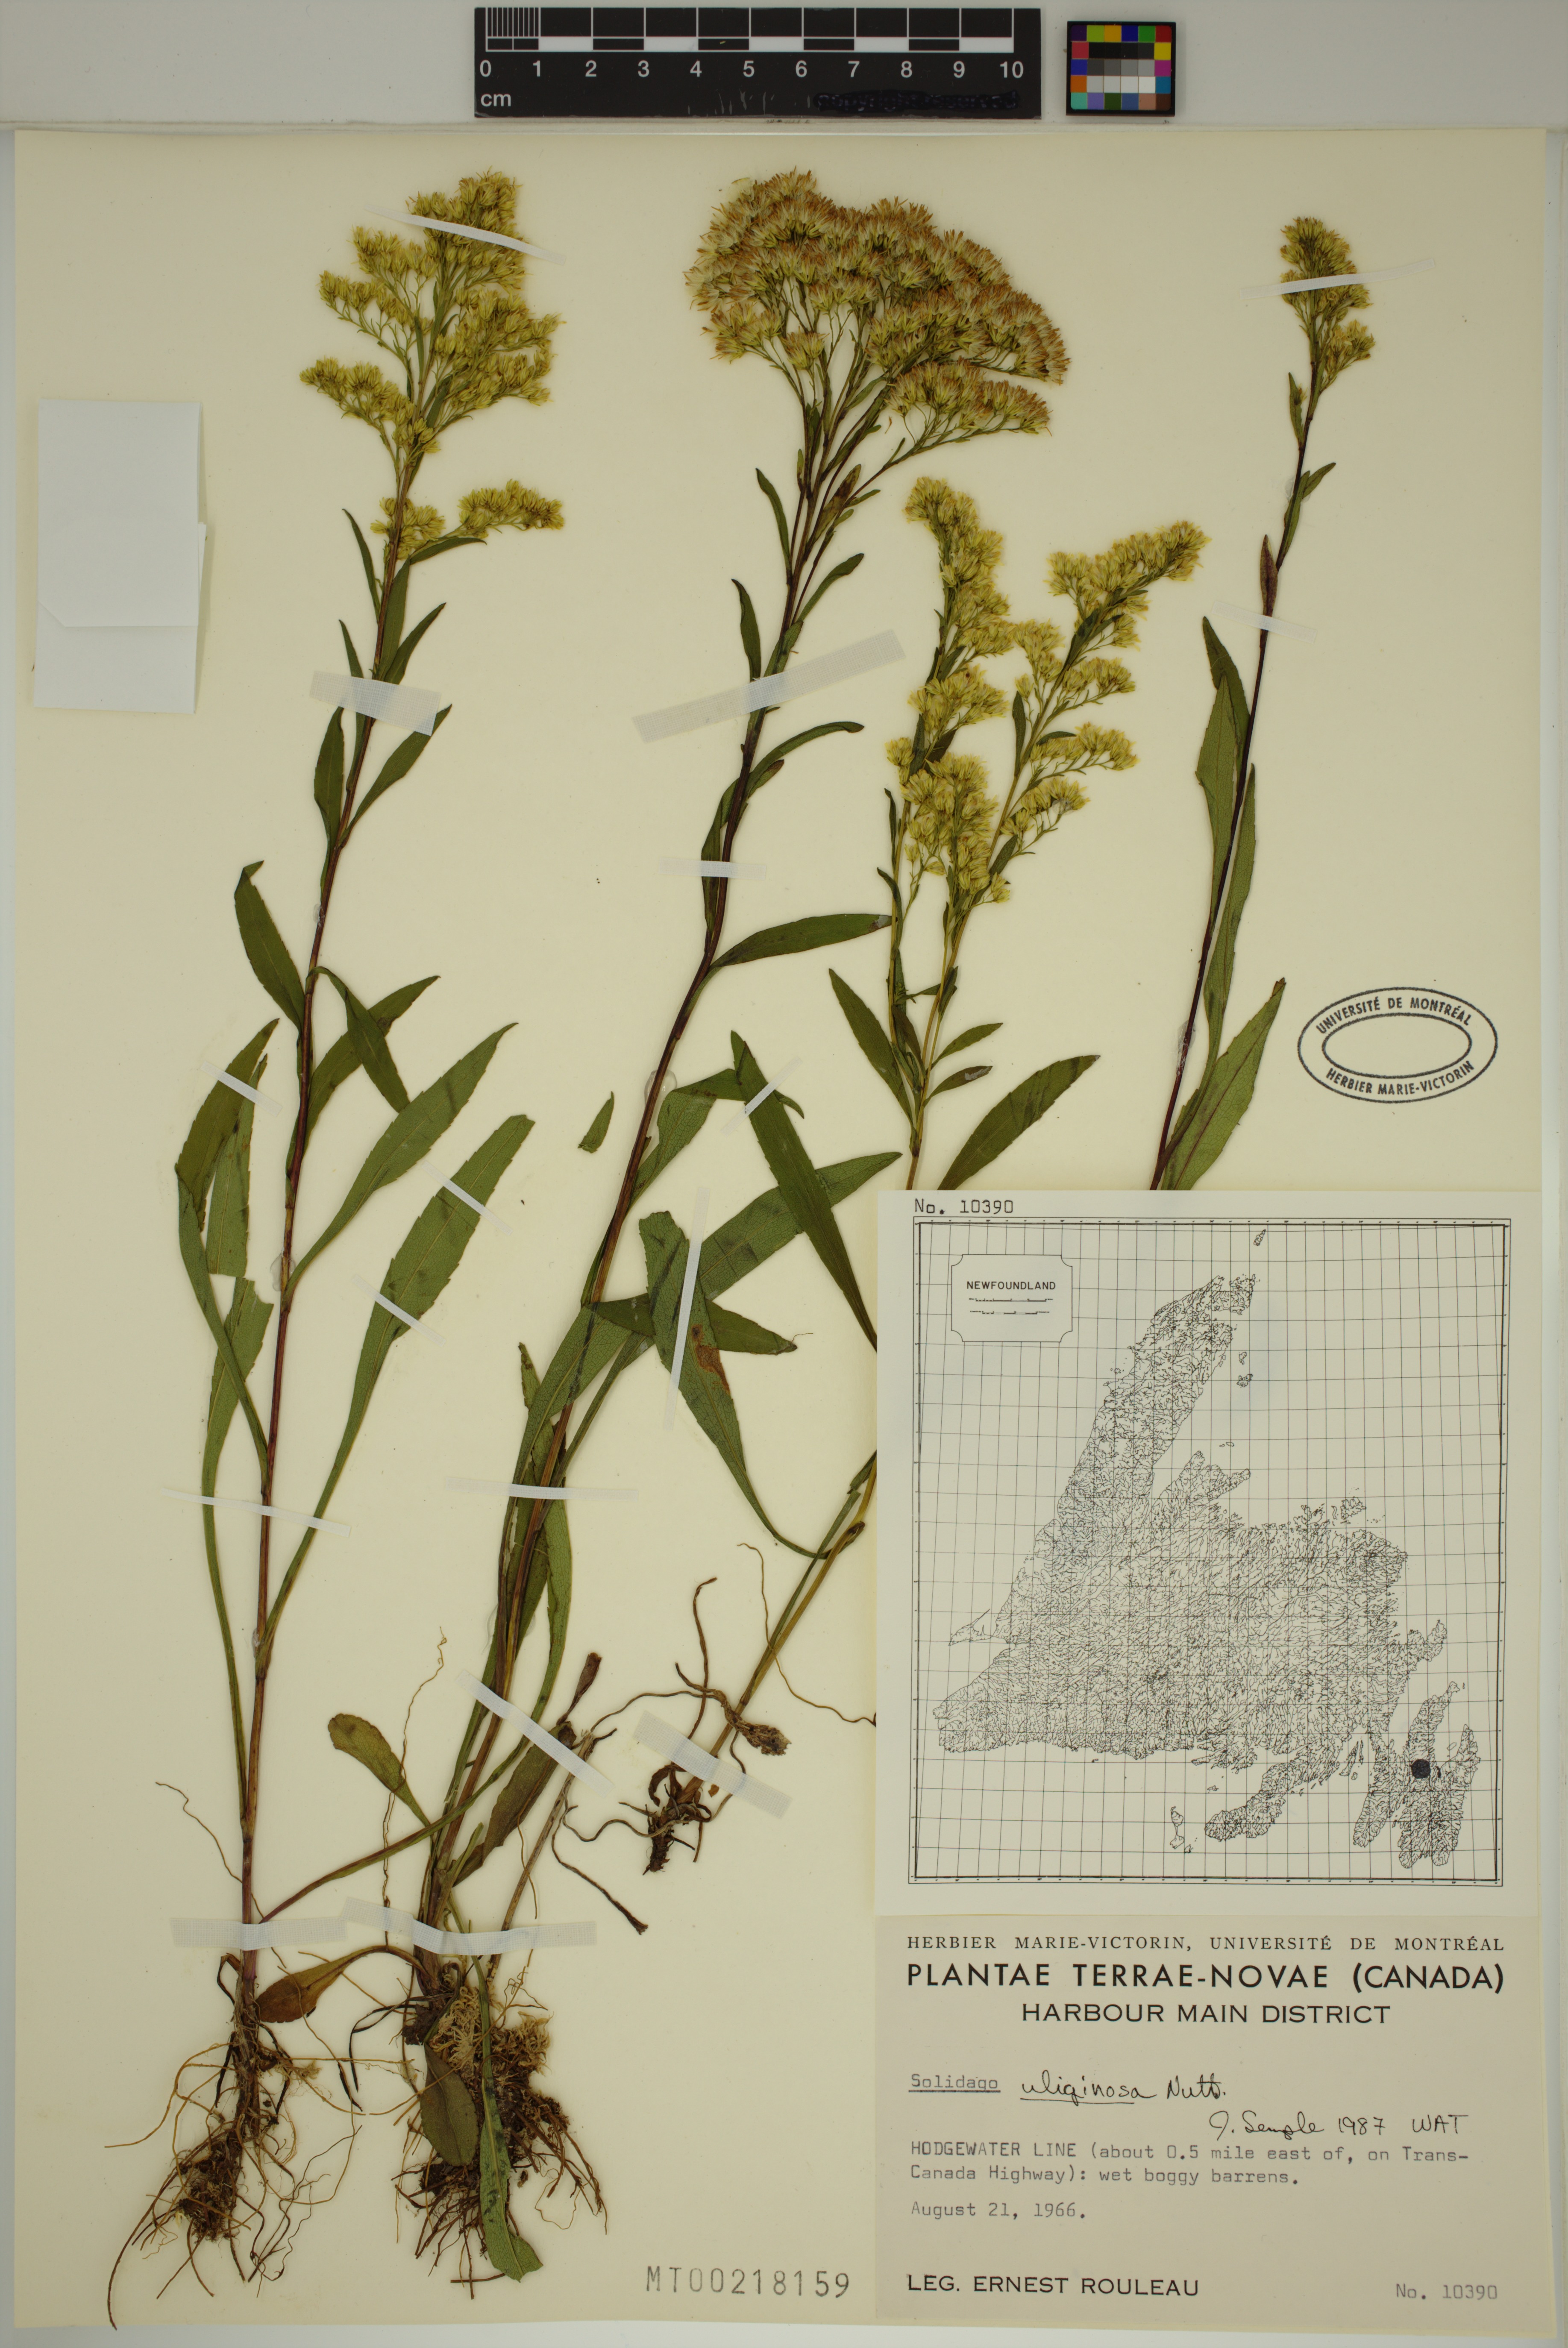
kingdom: Plantae
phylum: Tracheophyta
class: Magnoliopsida
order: Asterales
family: Asteraceae
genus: Solidago
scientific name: Solidago uliginosa
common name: Bog goldenrod
